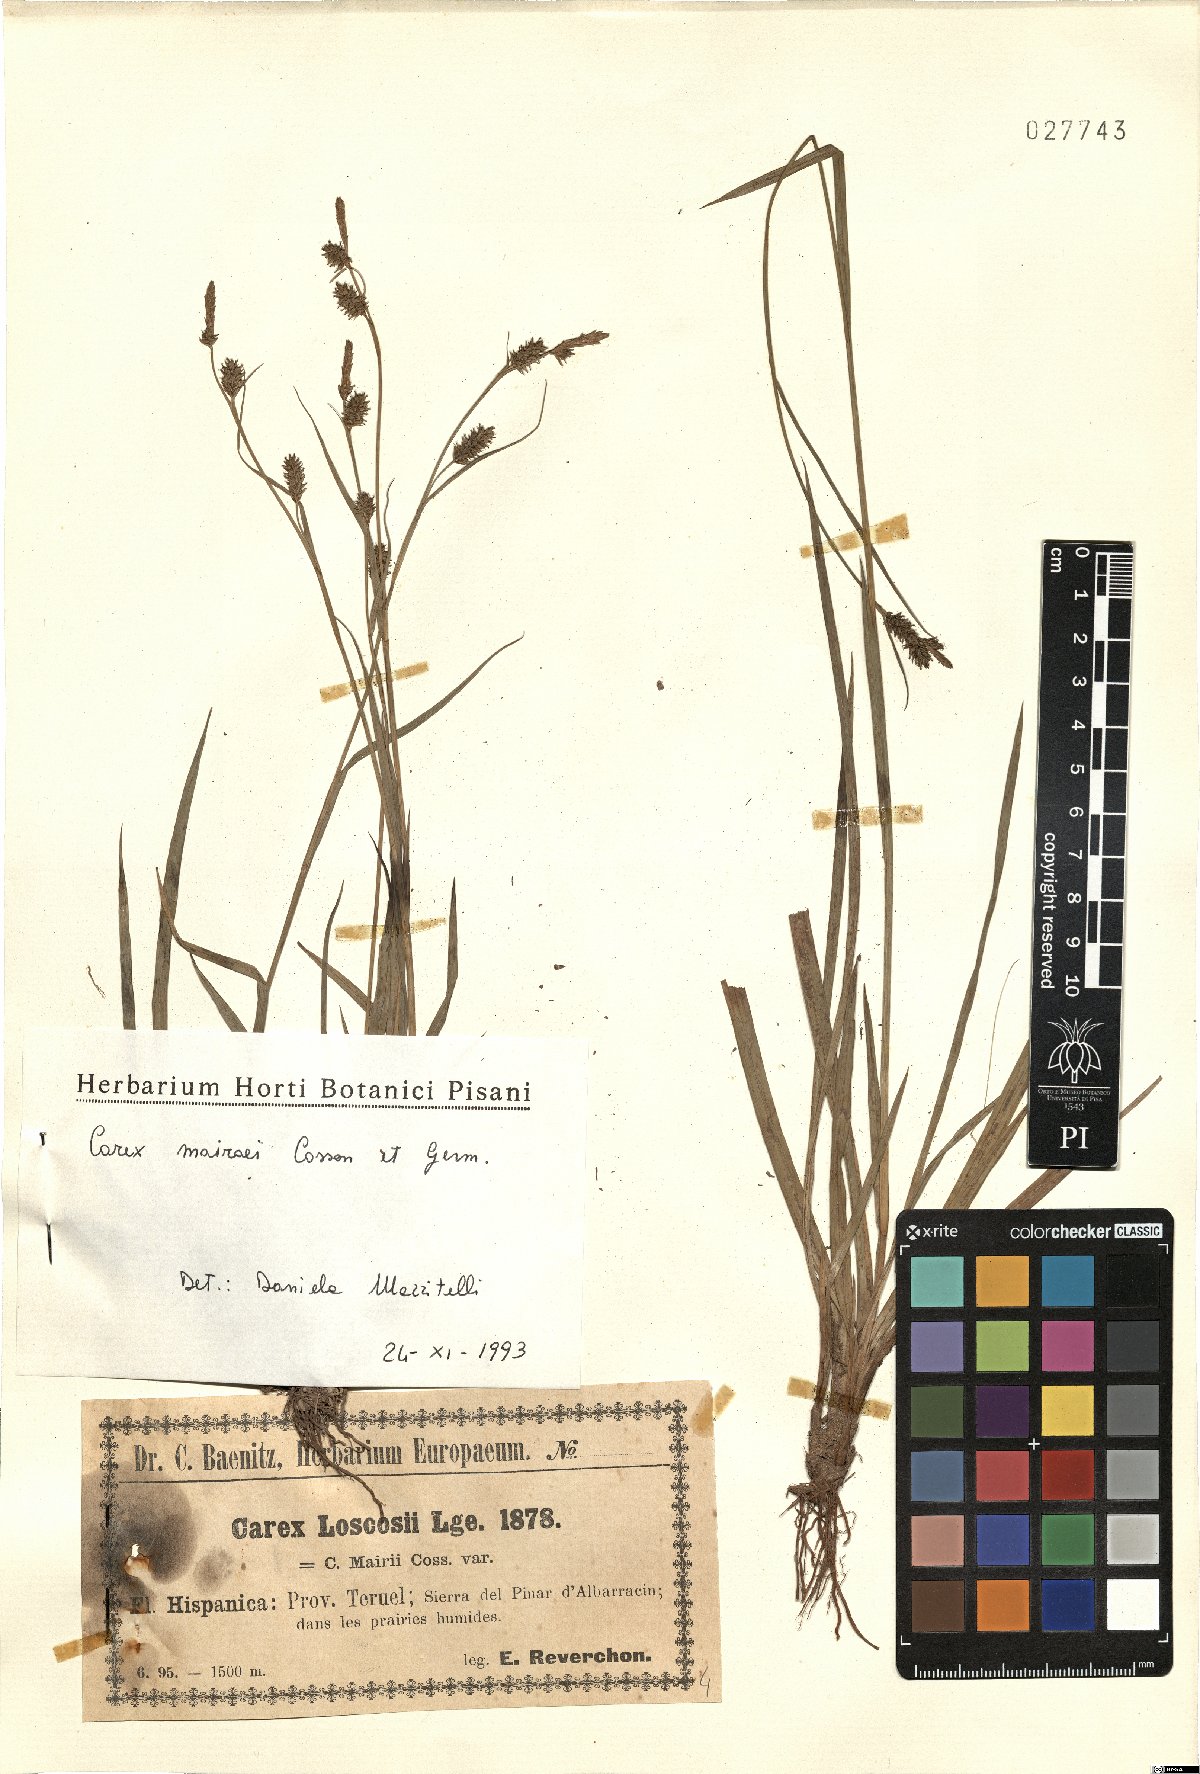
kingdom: Plantae
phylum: Tracheophyta
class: Liliopsida
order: Poales
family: Cyperaceae
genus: Carex
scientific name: Carex mairei
